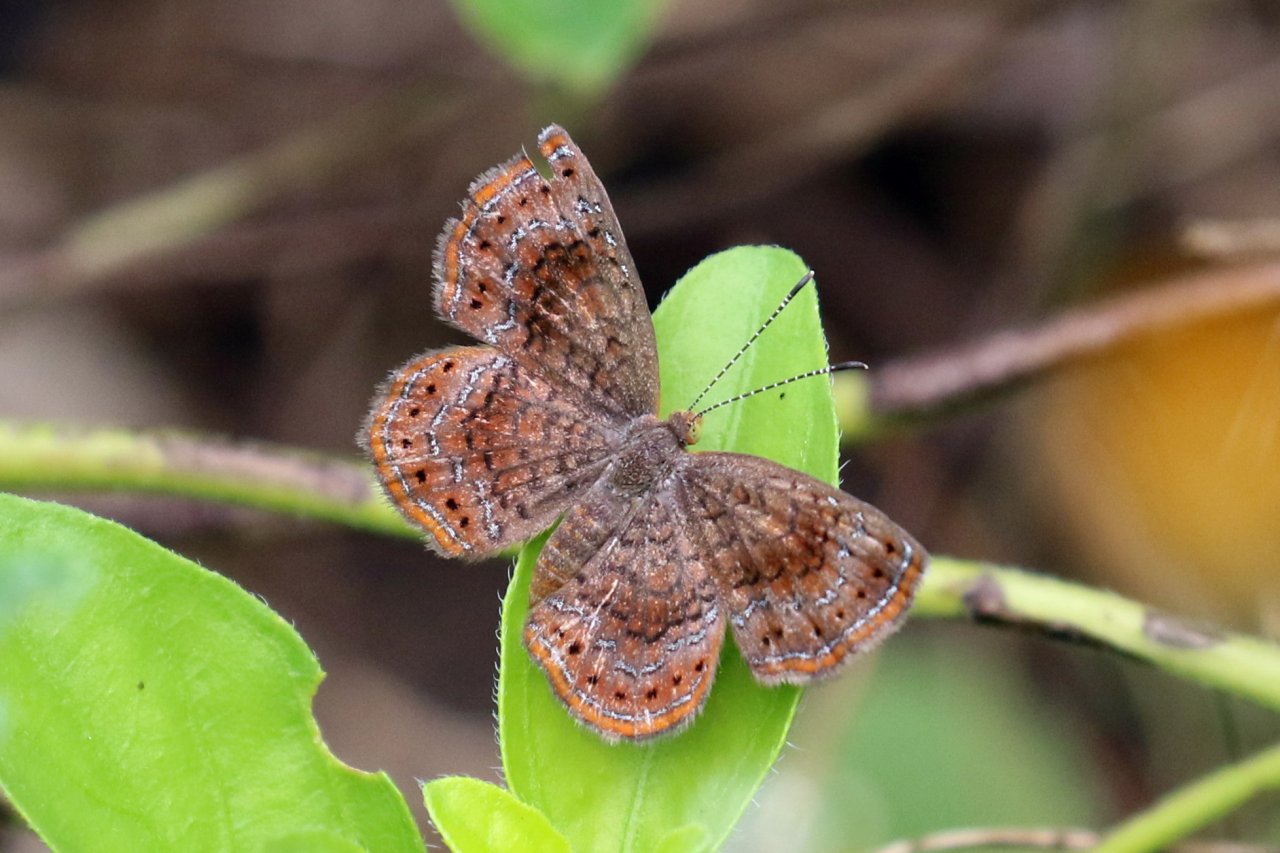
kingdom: Animalia
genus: Calephelis
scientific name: Calephelis perditalis
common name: Rounded Metalmark
